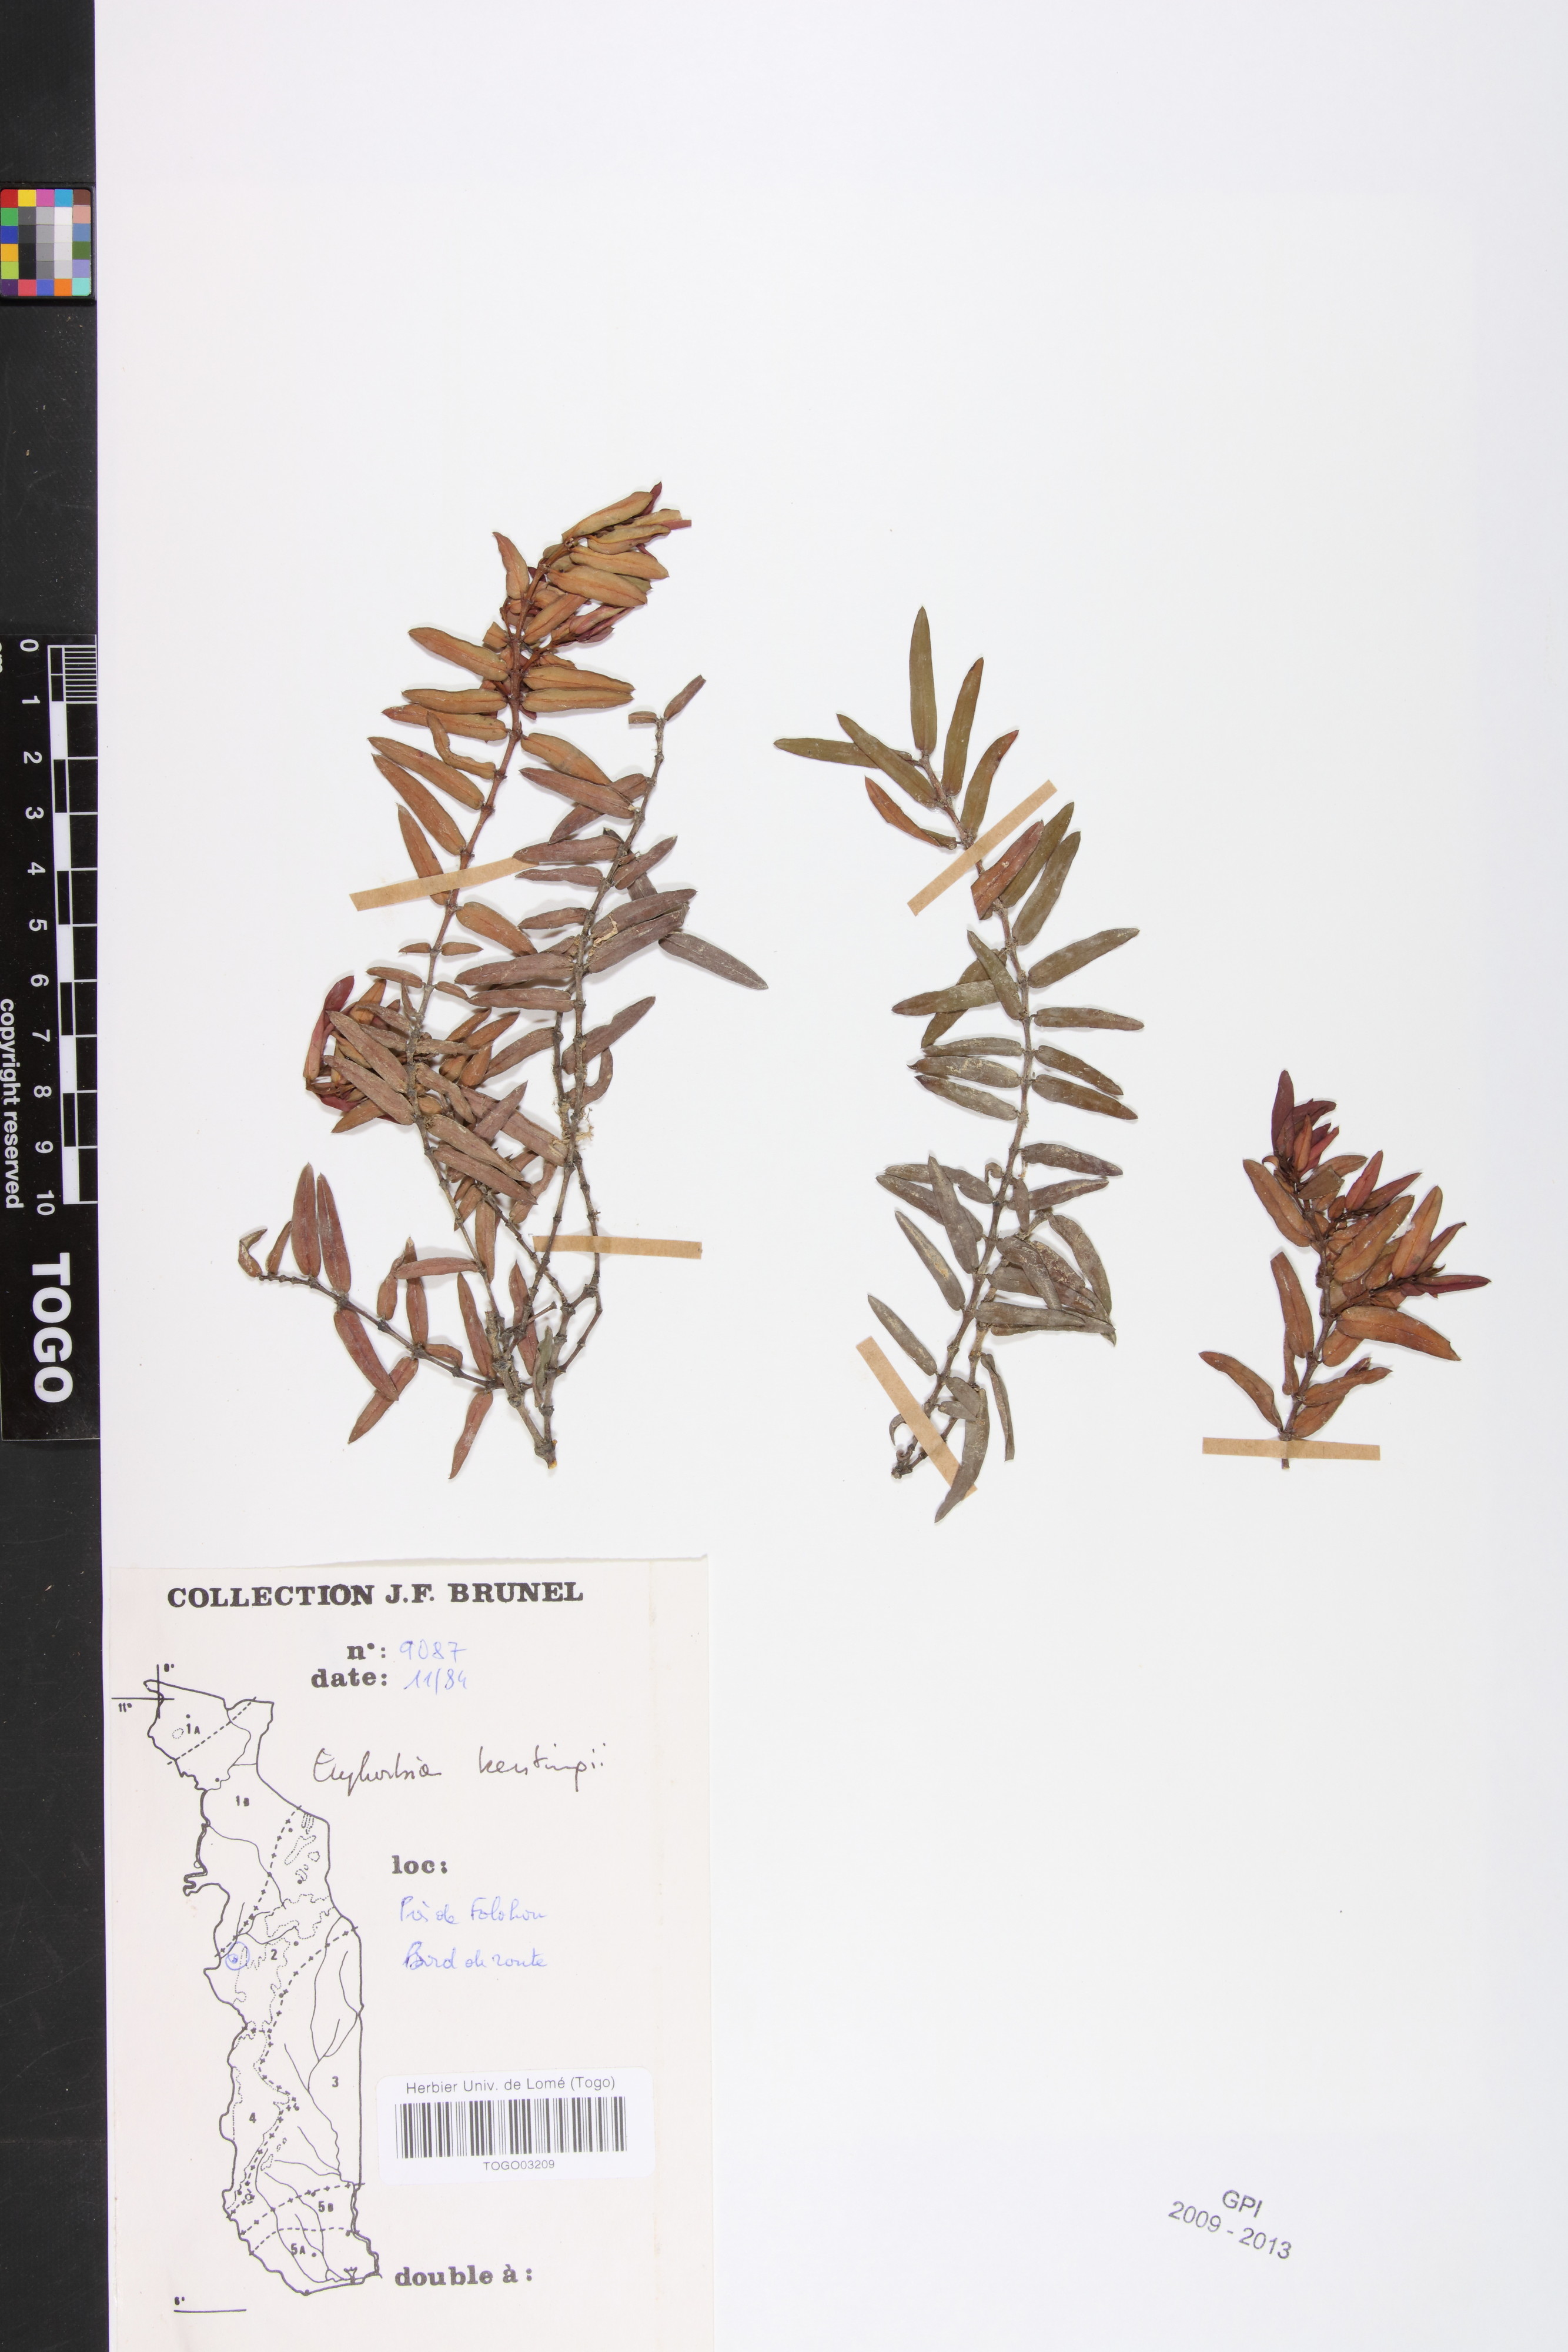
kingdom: Plantae
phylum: Tracheophyta
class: Magnoliopsida
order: Malpighiales
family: Euphorbiaceae
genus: Euphorbia
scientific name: Euphorbia kerstingii
